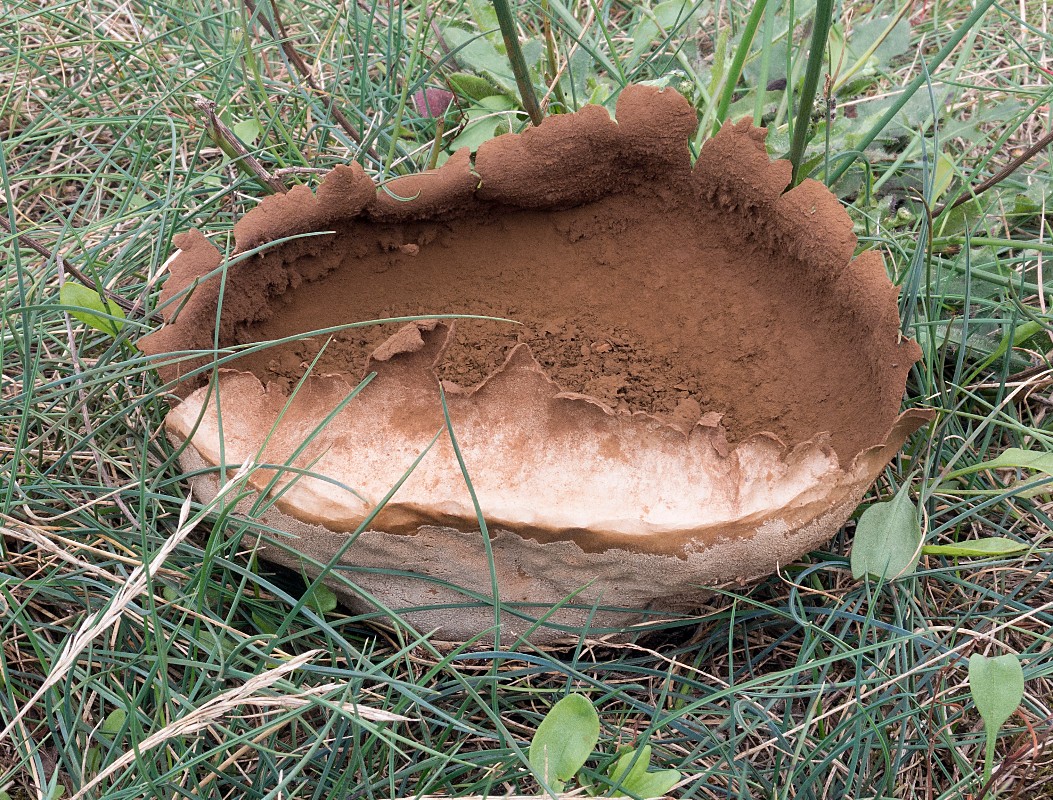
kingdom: Fungi
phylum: Basidiomycota
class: Agaricomycetes
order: Agaricales
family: Lycoperdaceae
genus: Bovistella
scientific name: Bovistella utriformis
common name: skællet støvbold
